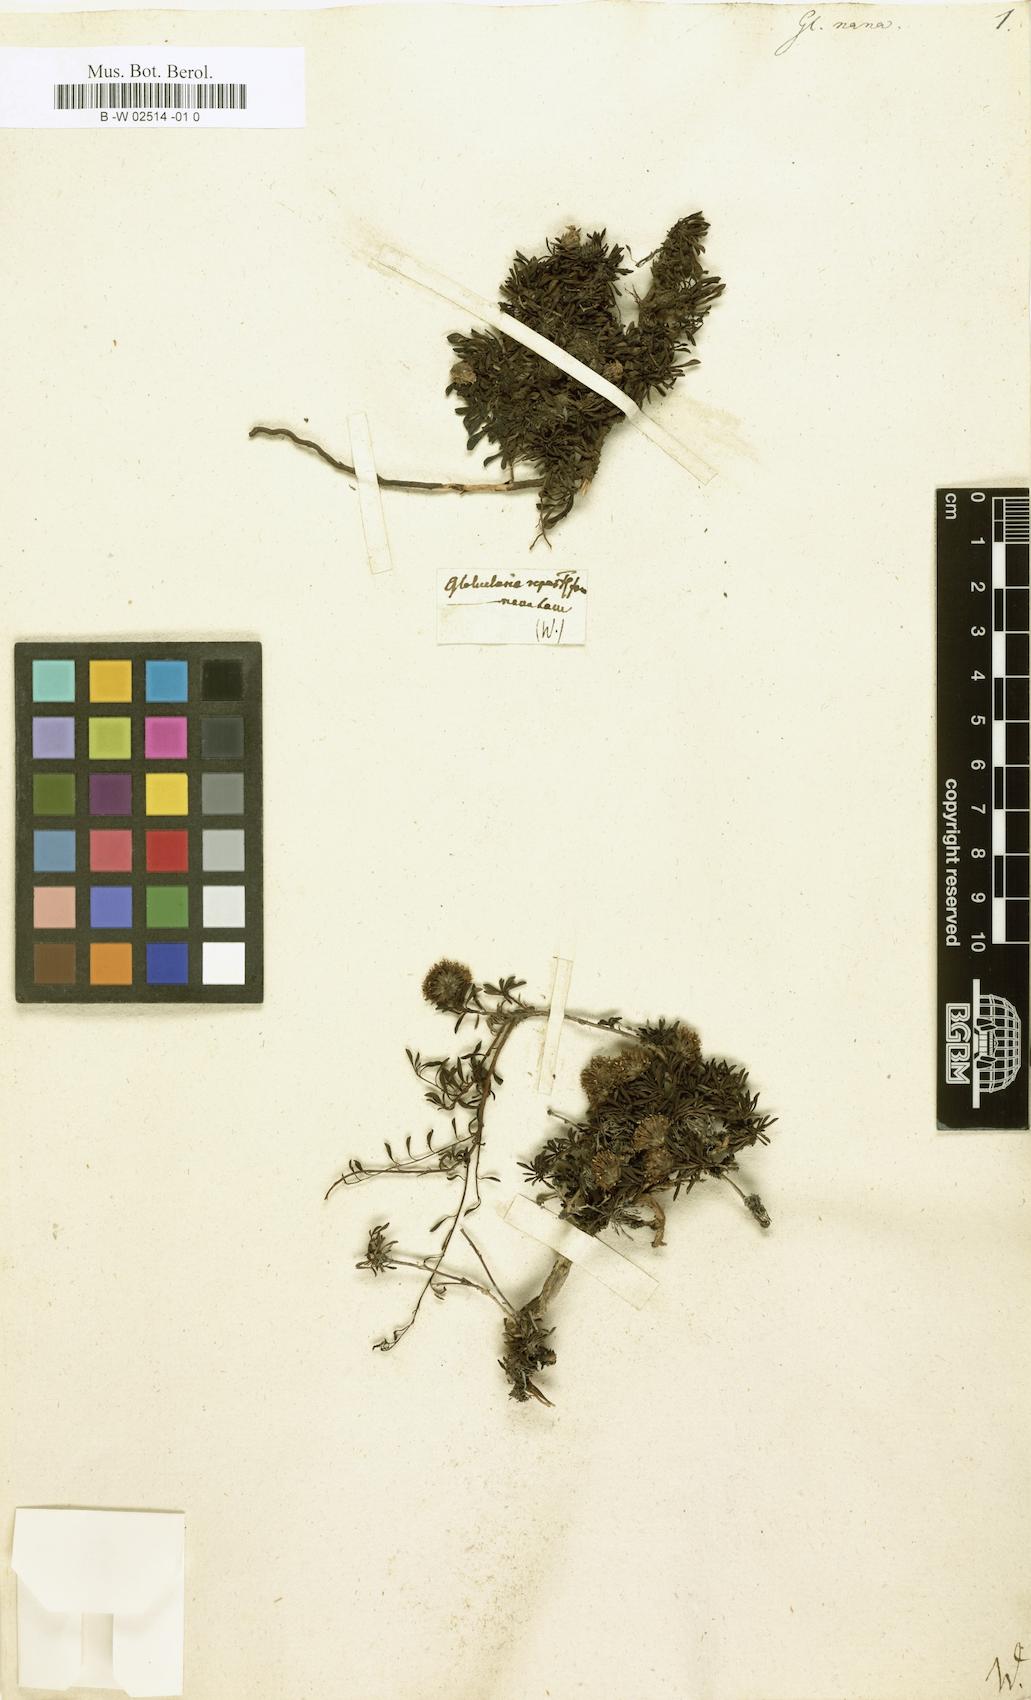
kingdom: Plantae
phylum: Tracheophyta
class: Magnoliopsida
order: Lamiales
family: Plantaginaceae
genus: Globularia
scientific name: Globularia repens
